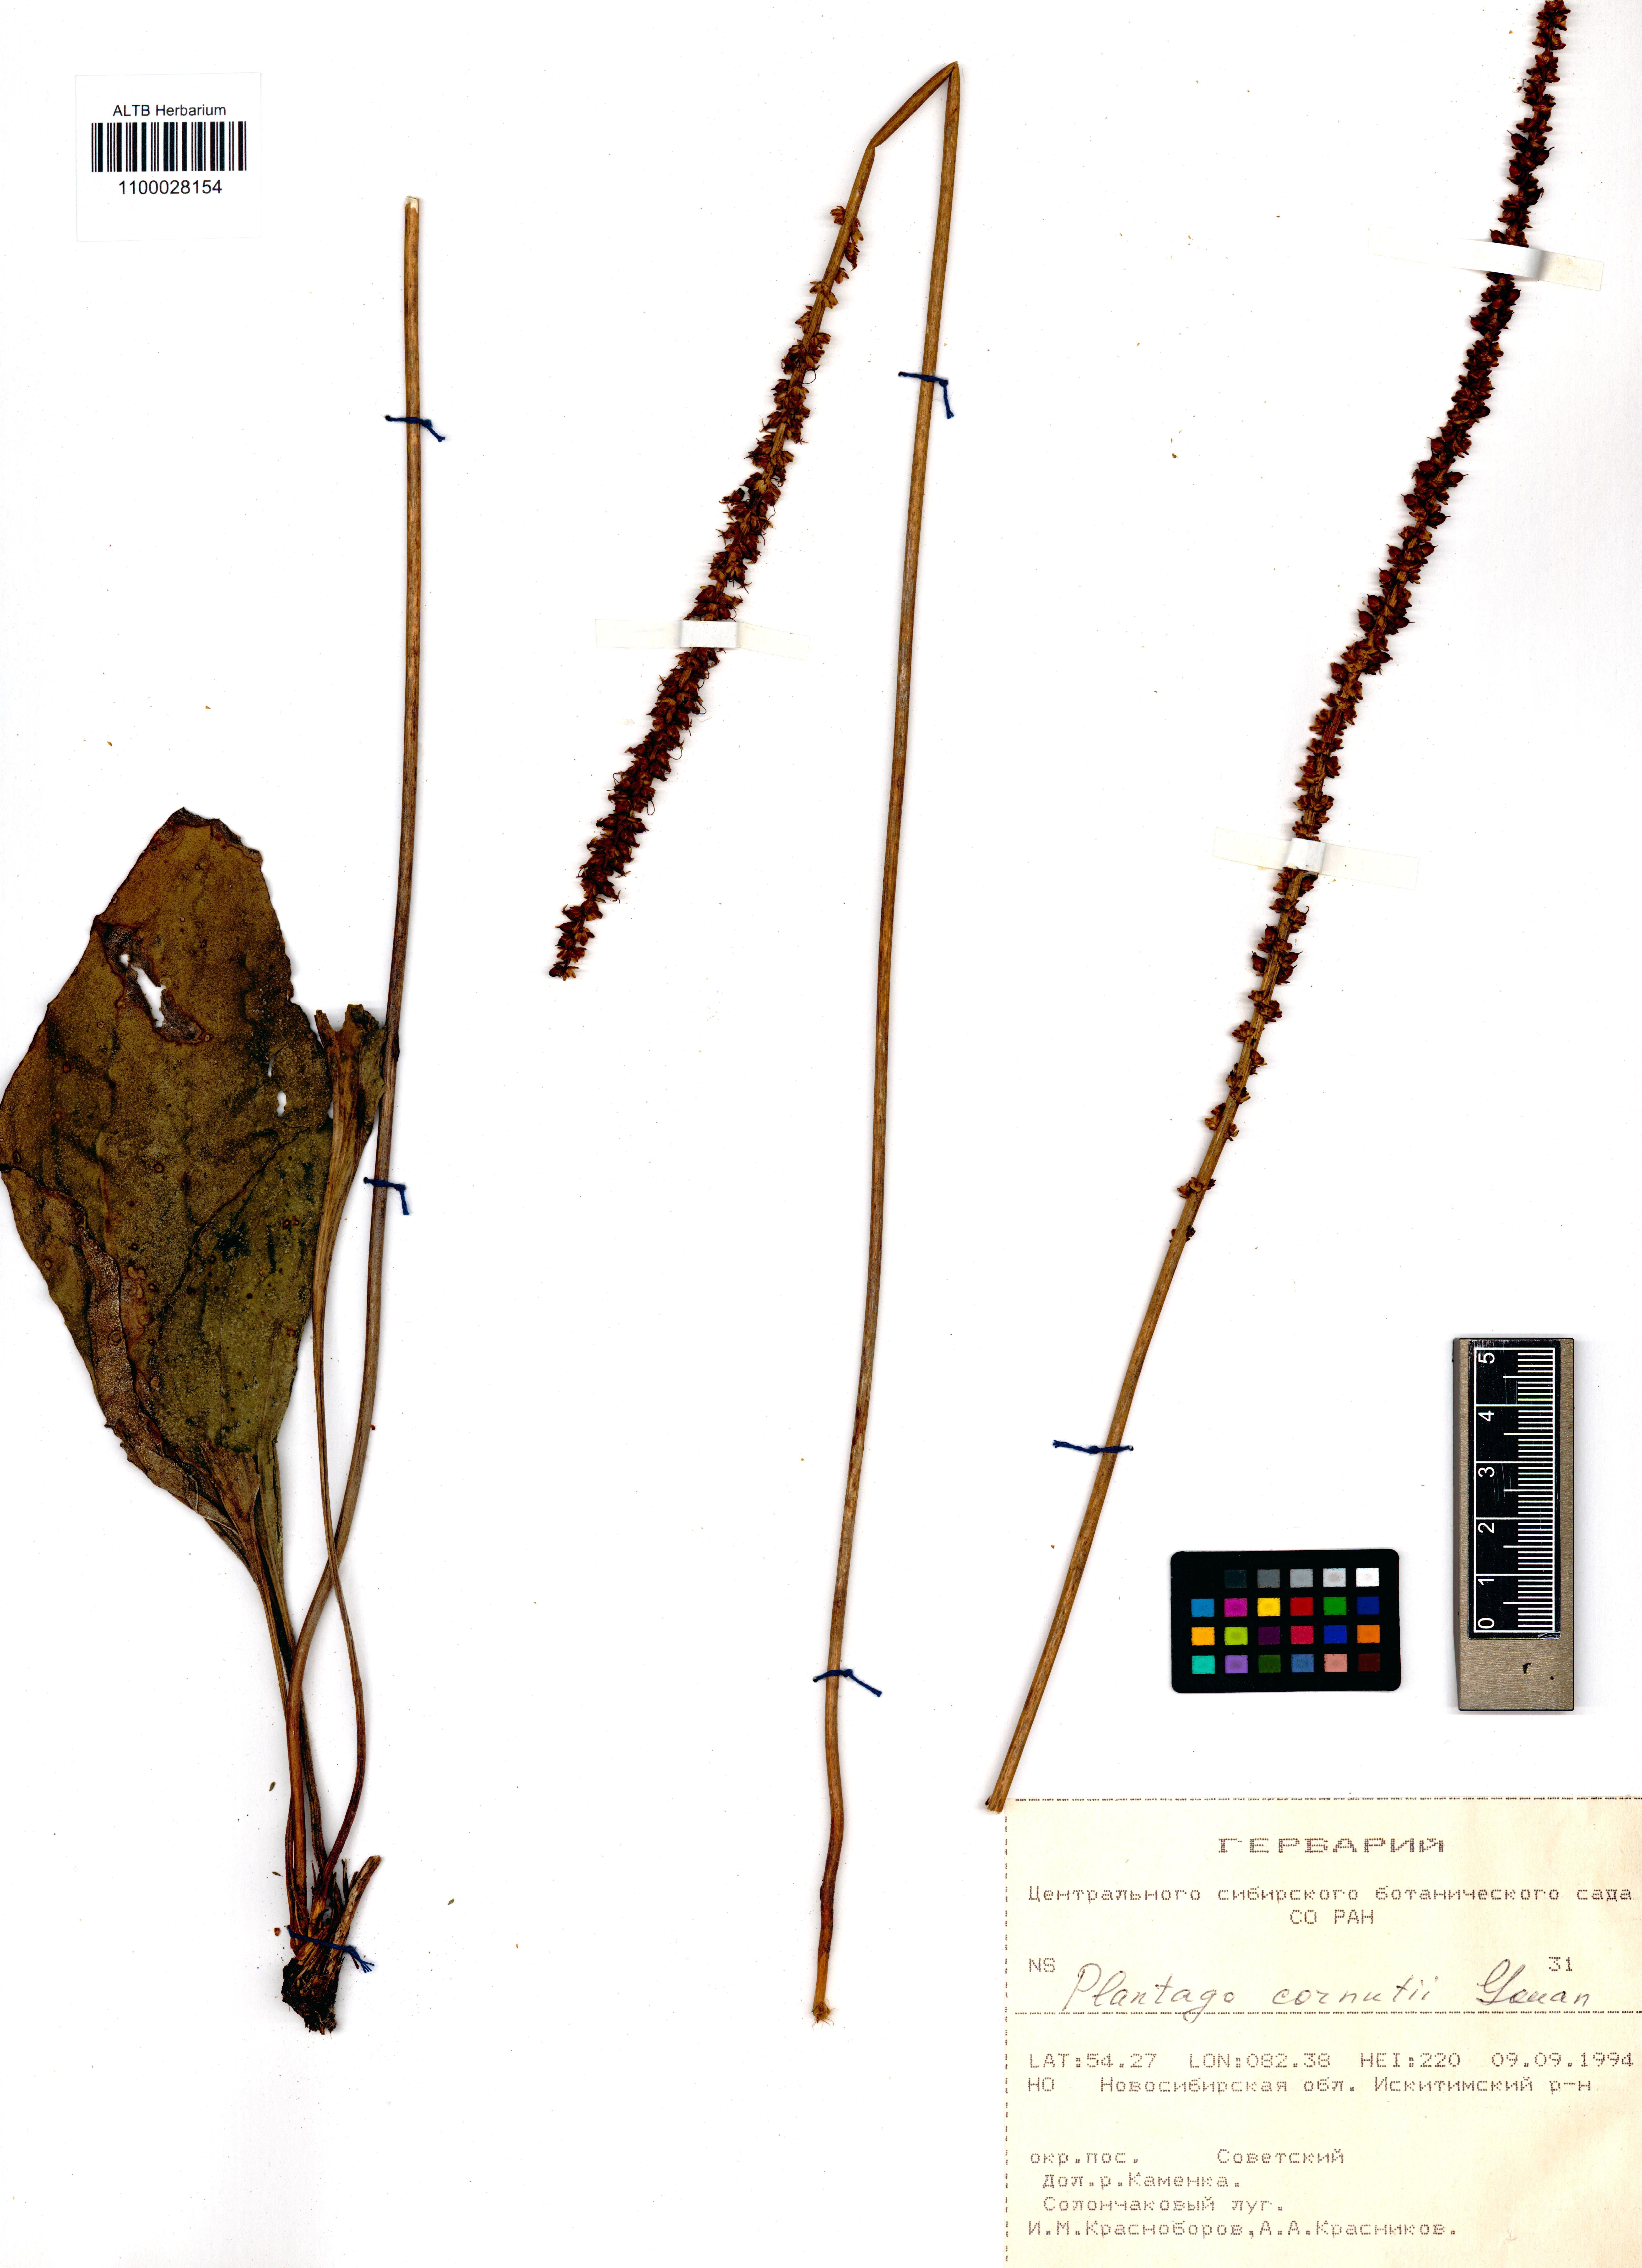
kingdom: Plantae
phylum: Tracheophyta
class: Magnoliopsida
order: Lamiales
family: Plantaginaceae
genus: Plantago
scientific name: Plantago cornuti
